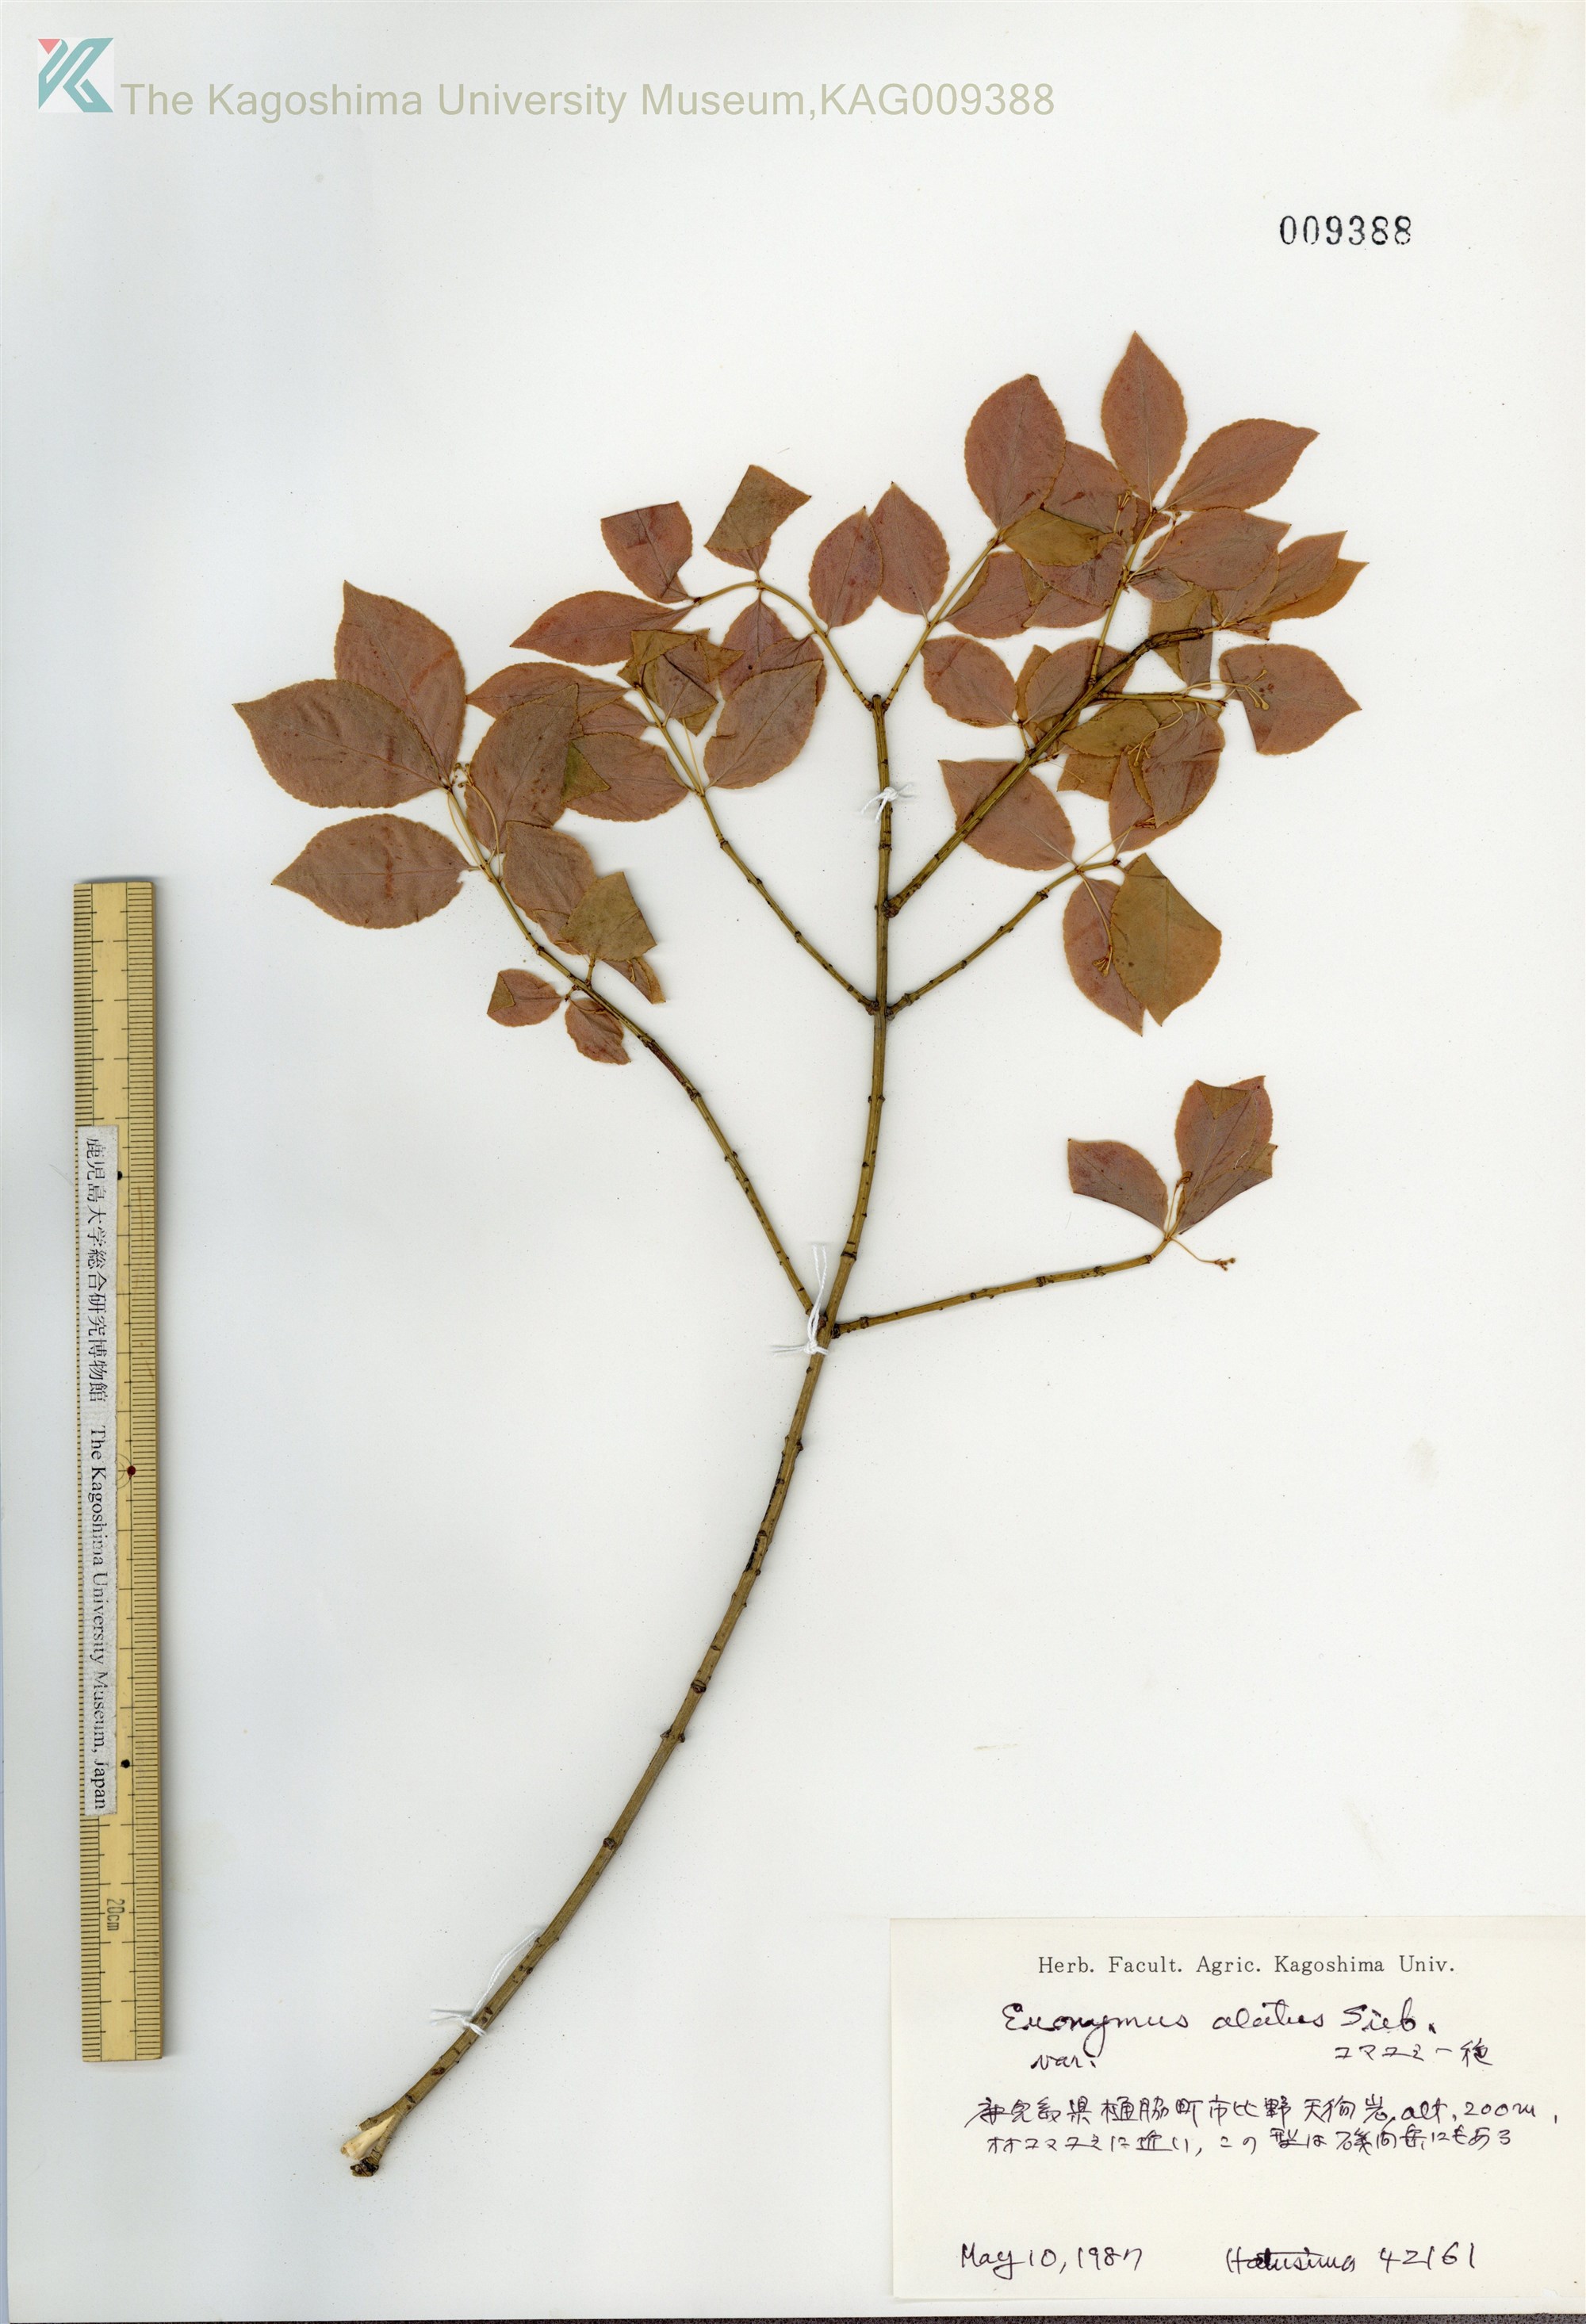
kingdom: Plantae
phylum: Tracheophyta
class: Magnoliopsida
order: Celastrales
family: Celastraceae
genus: Euonymus
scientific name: Euonymus alatus
